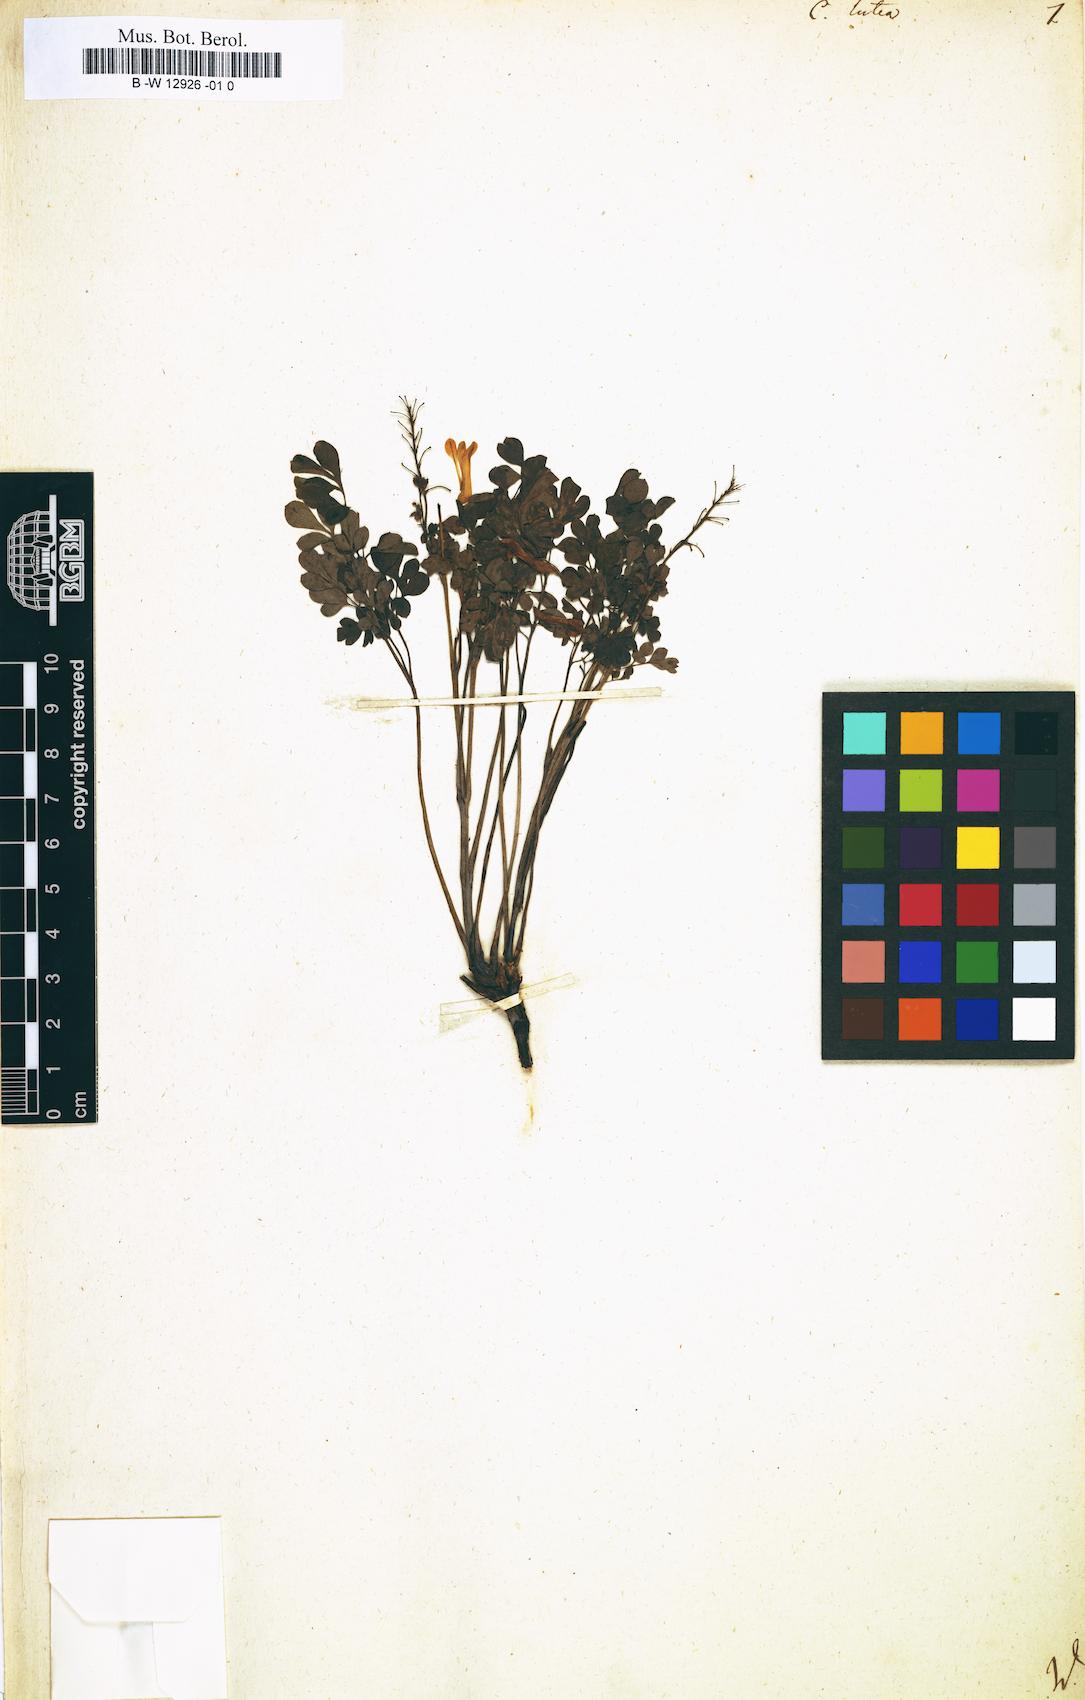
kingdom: Plantae
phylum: Tracheophyta
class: Magnoliopsida
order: Ranunculales
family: Papaveraceae
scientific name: Papaveraceae
